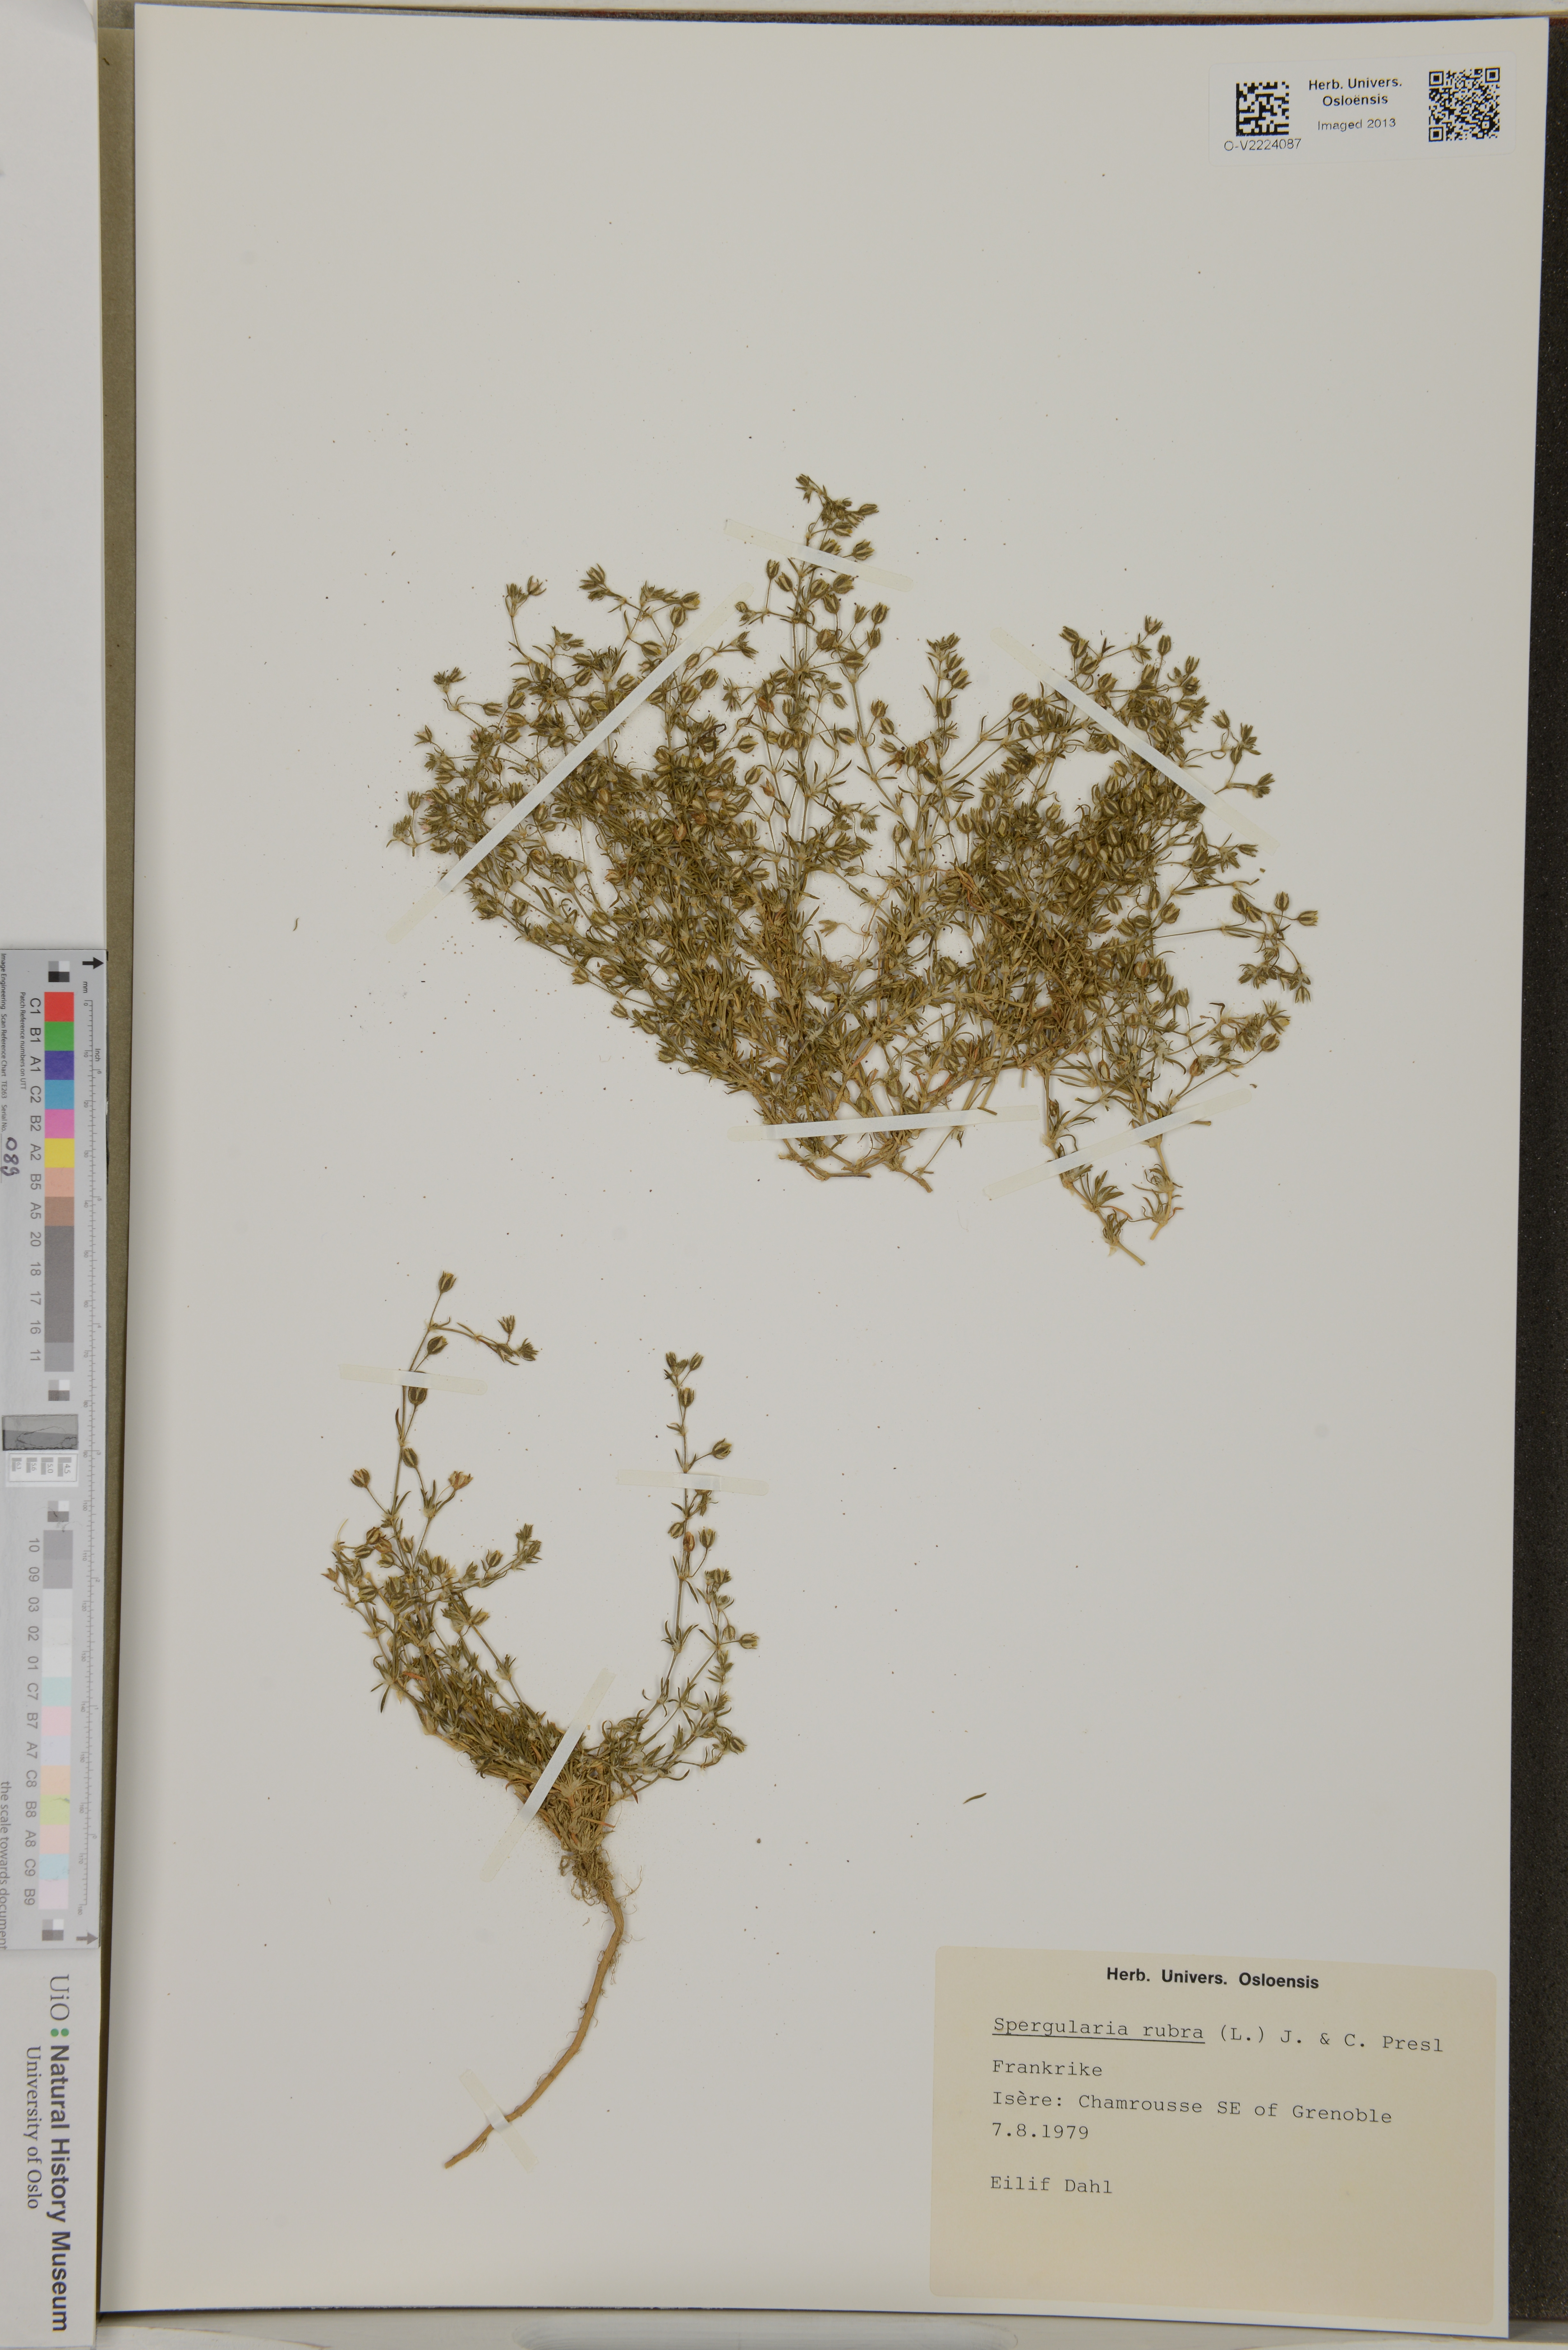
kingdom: Plantae
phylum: Tracheophyta
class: Magnoliopsida
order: Caryophyllales
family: Caryophyllaceae
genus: Spergularia
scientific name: Spergularia rubra
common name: Red sand-spurrey
